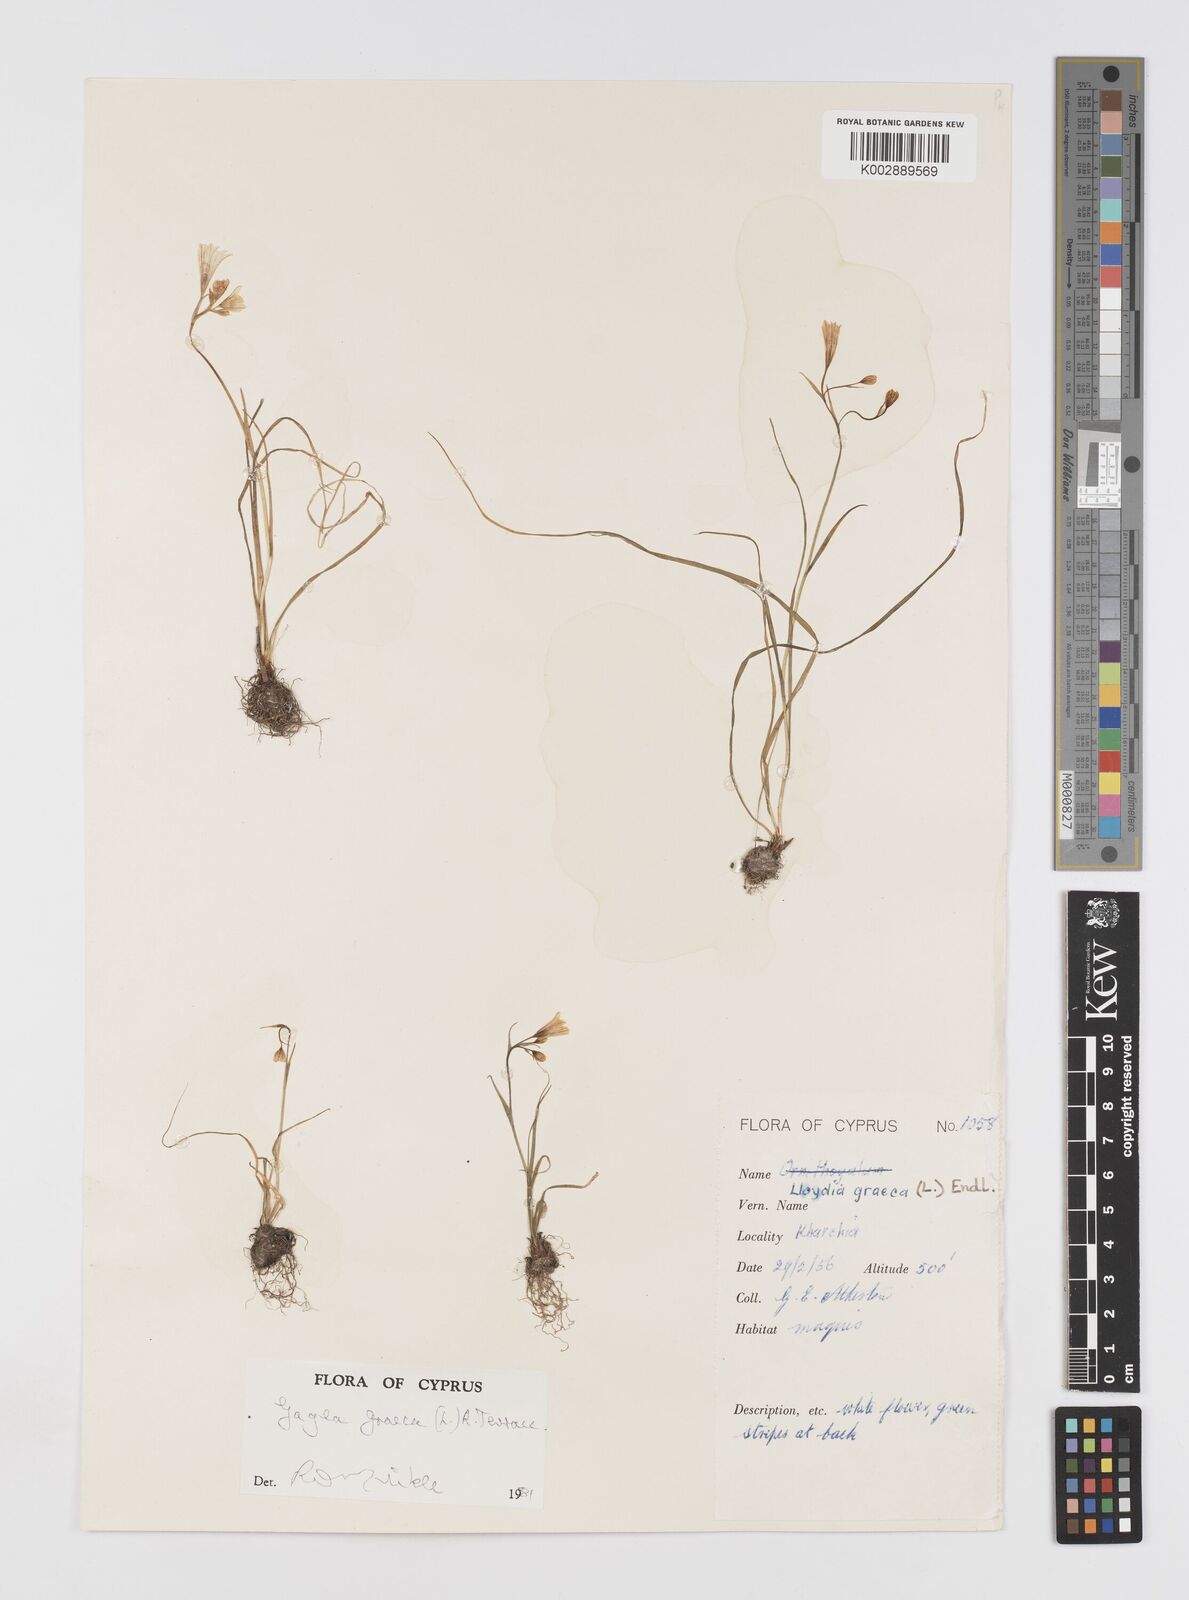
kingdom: Plantae
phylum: Tracheophyta
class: Liliopsida
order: Liliales
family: Liliaceae
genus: Gagea
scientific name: Gagea graeca
